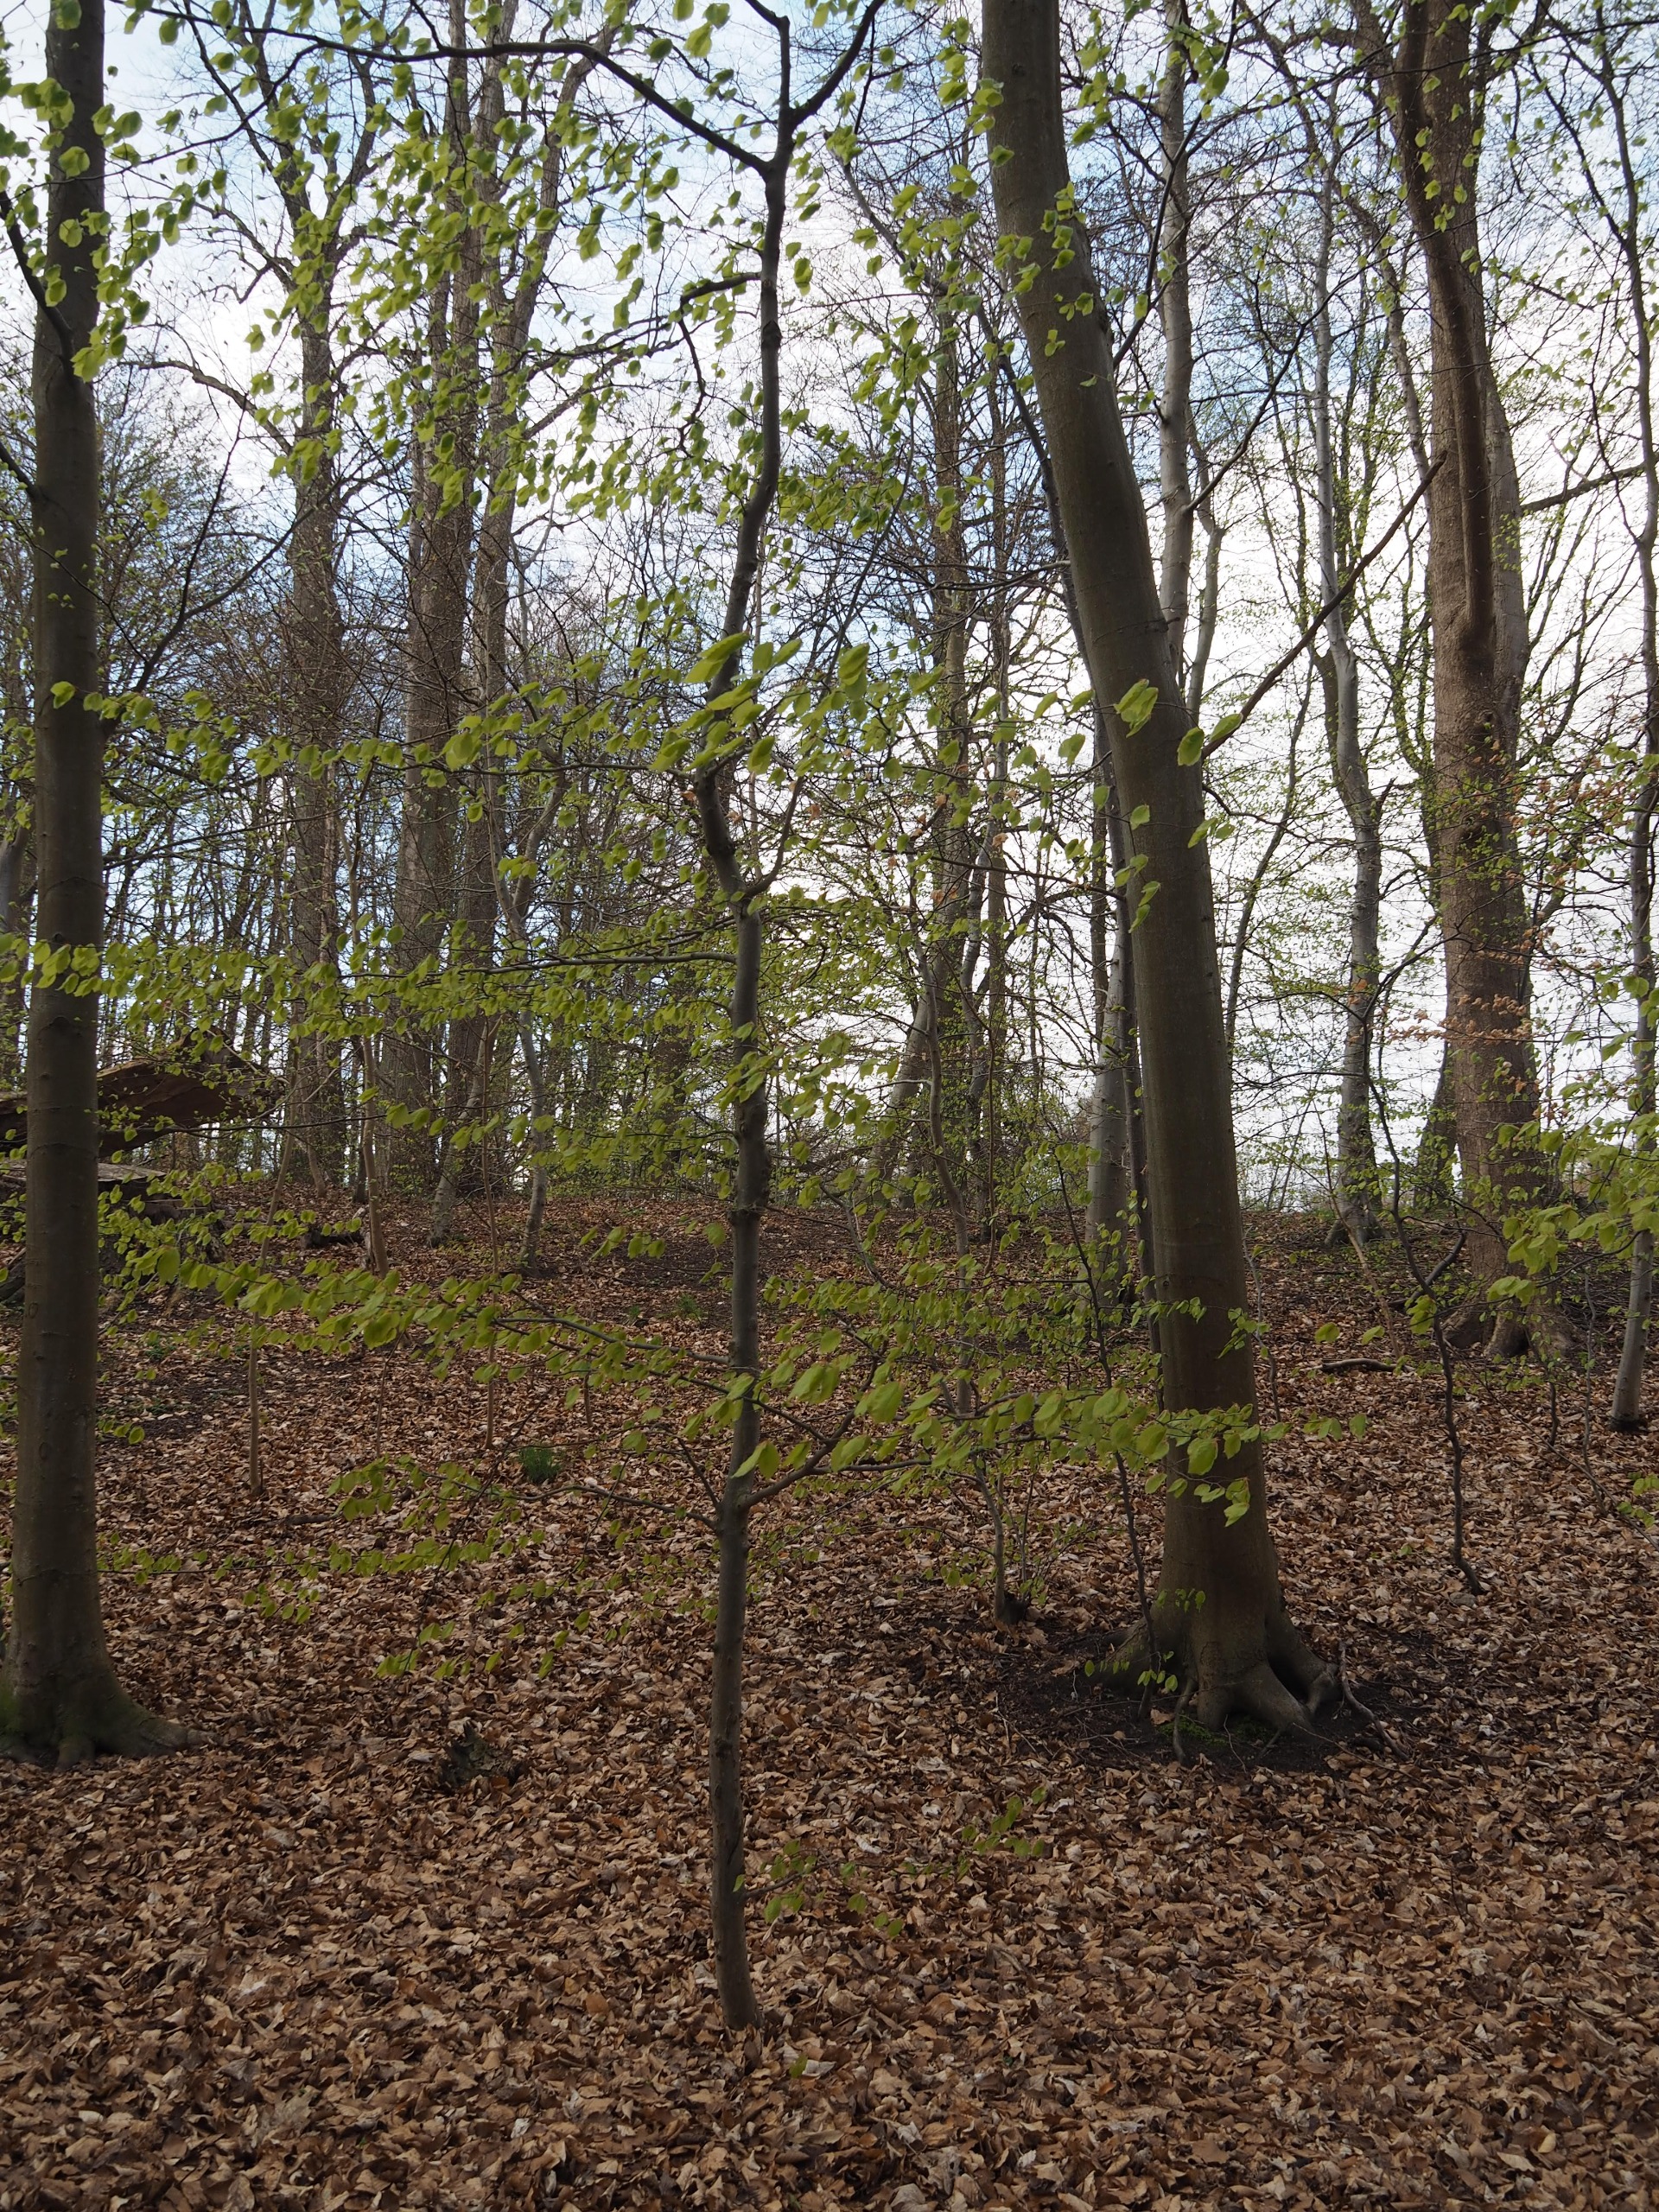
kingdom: Plantae
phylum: Tracheophyta
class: Magnoliopsida
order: Fagales
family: Fagaceae
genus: Fagus
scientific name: Fagus sylvatica
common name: Bøg
